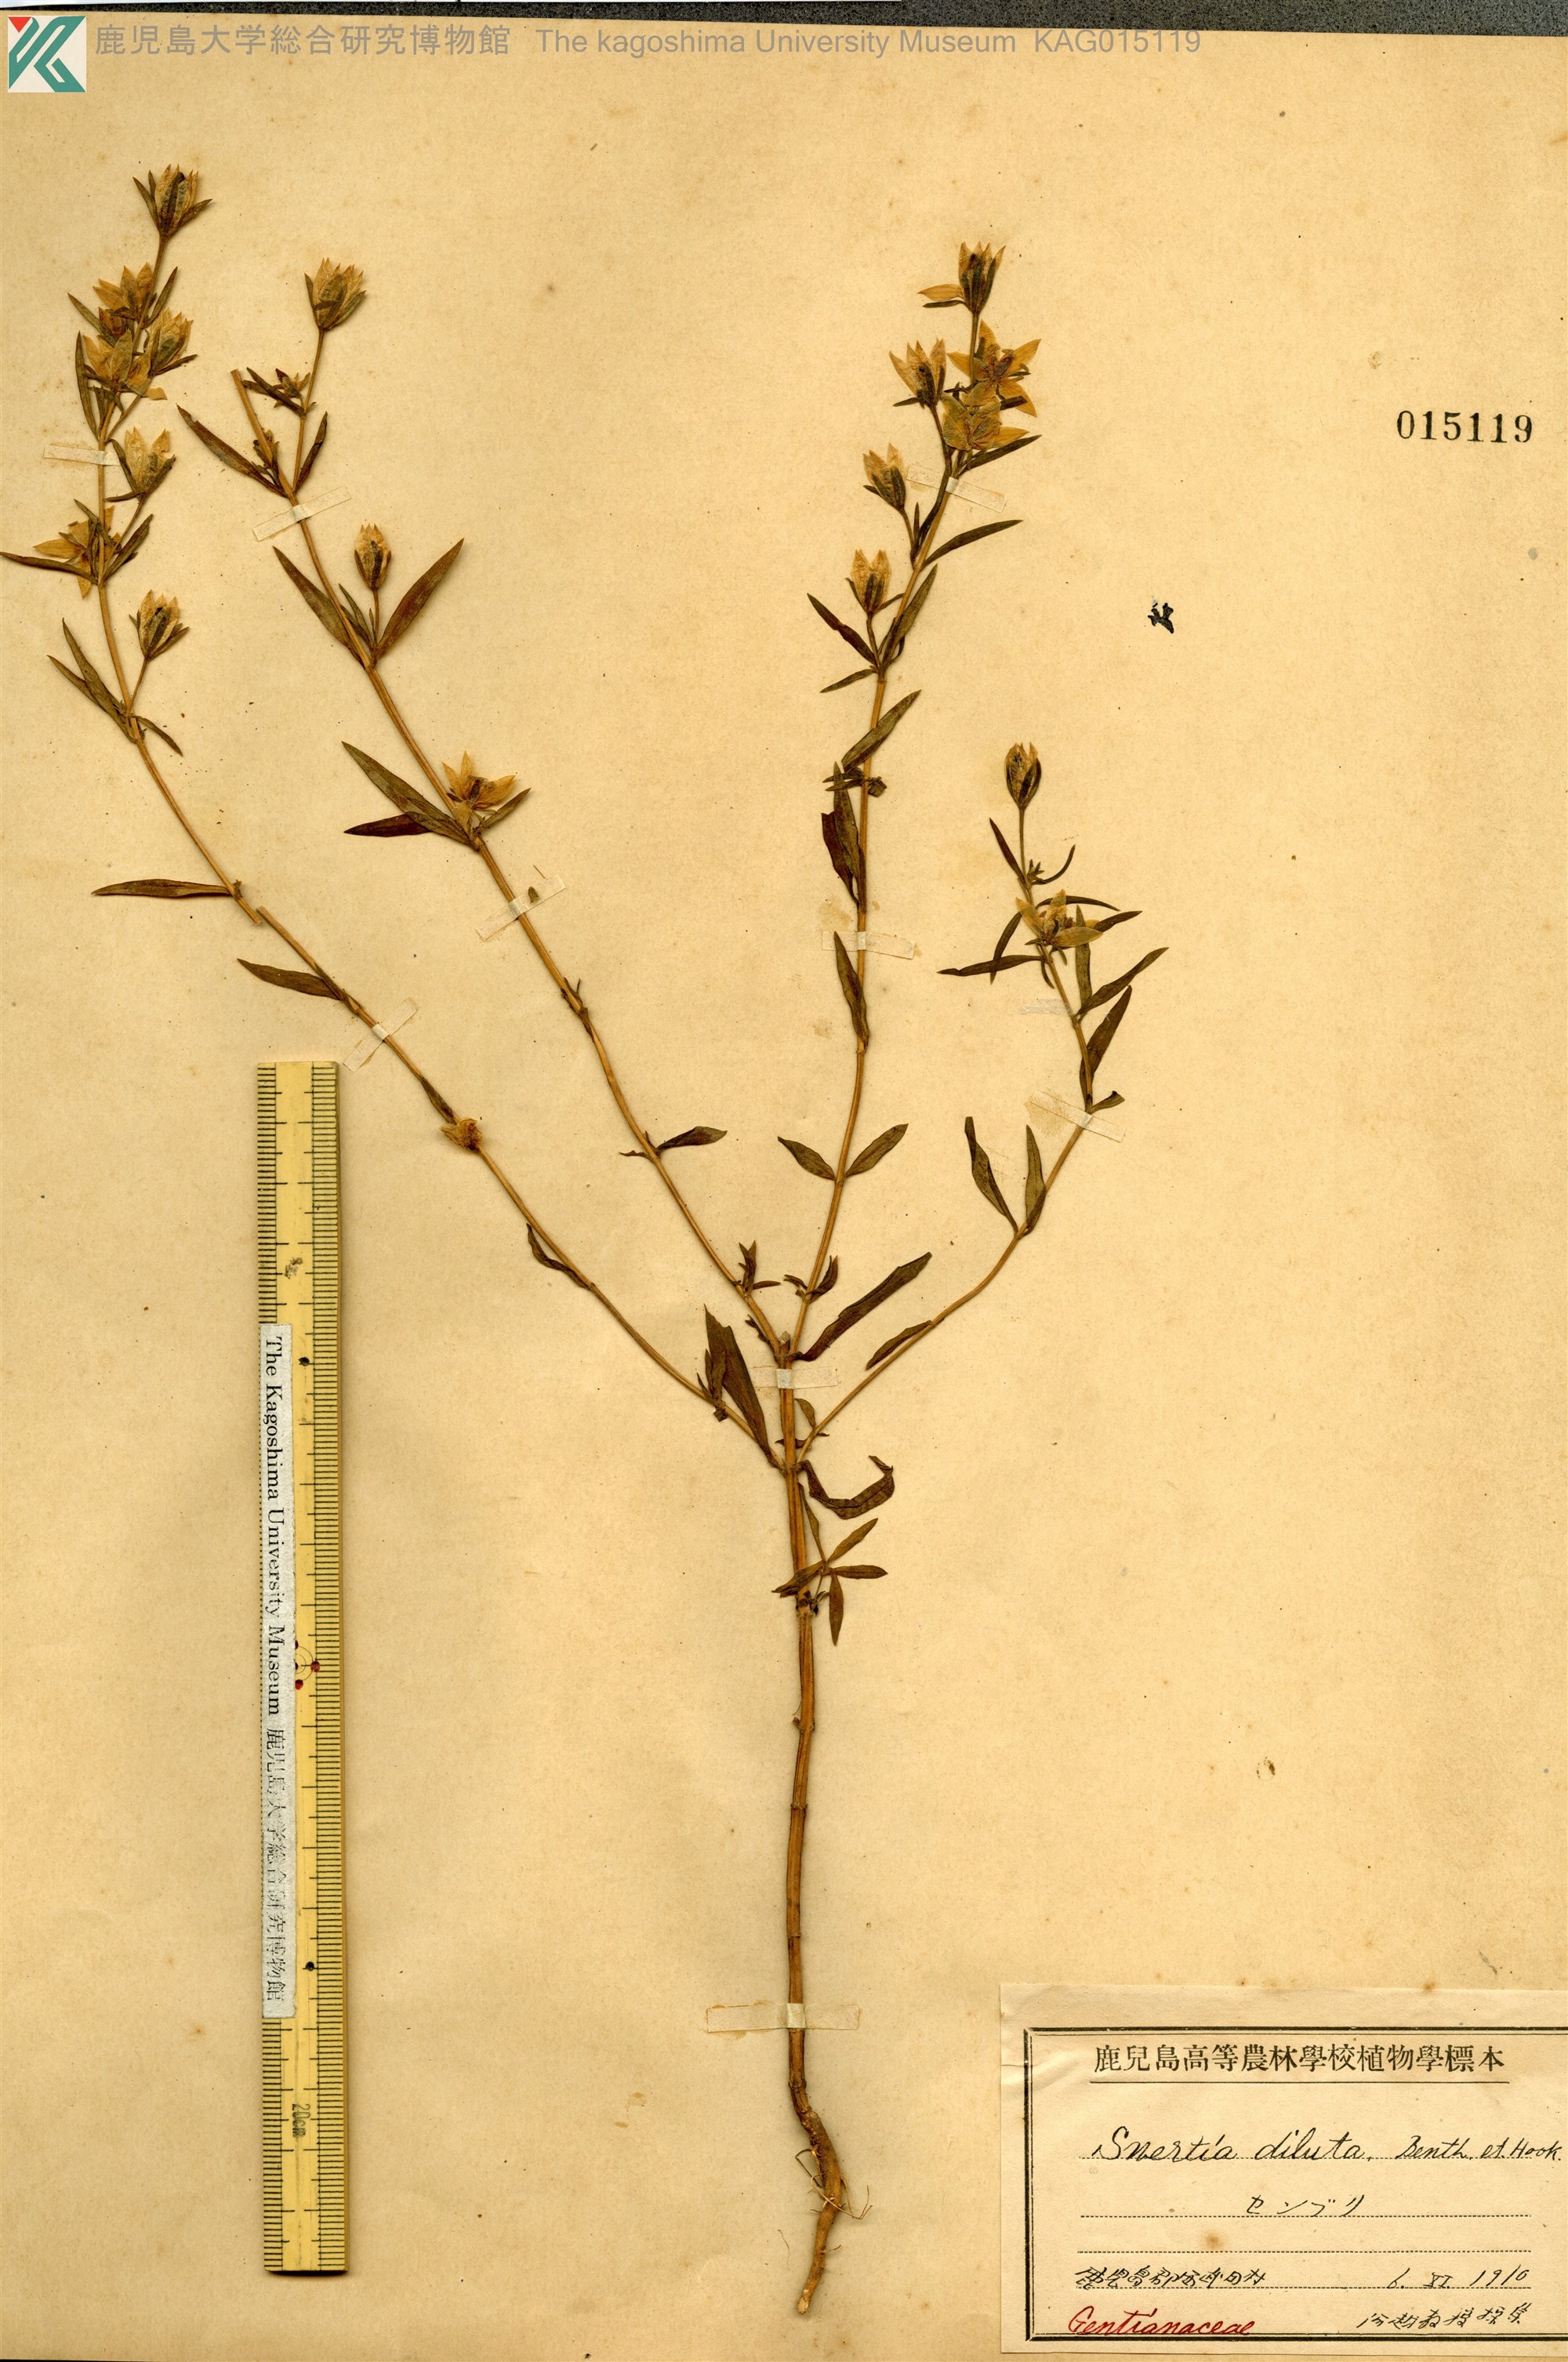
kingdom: Plantae
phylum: Tracheophyta
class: Magnoliopsida
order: Gentianales
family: Gentianaceae
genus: Swertia
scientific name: Swertia pseudochinensis
